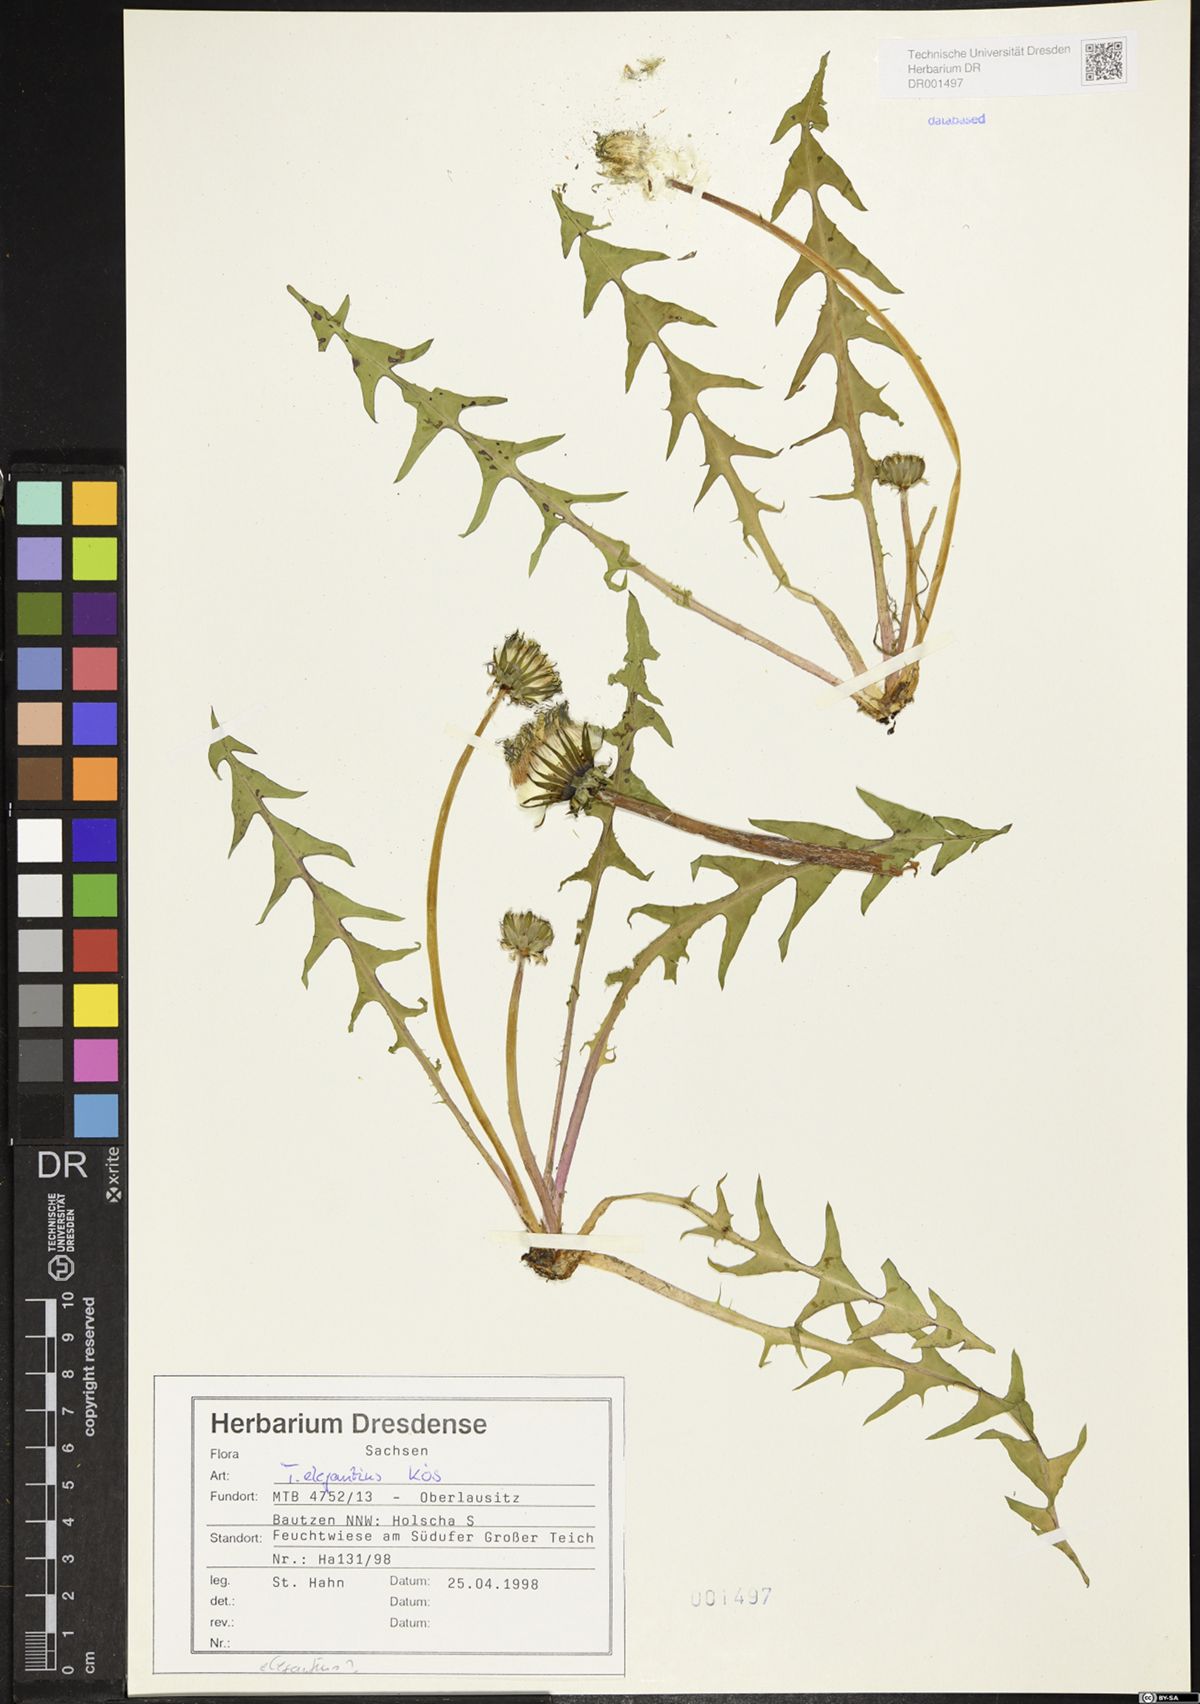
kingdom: Plantae
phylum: Tracheophyta
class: Magnoliopsida
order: Asterales
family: Asteraceae
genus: Taraxacum
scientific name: Taraxacum elegantius
